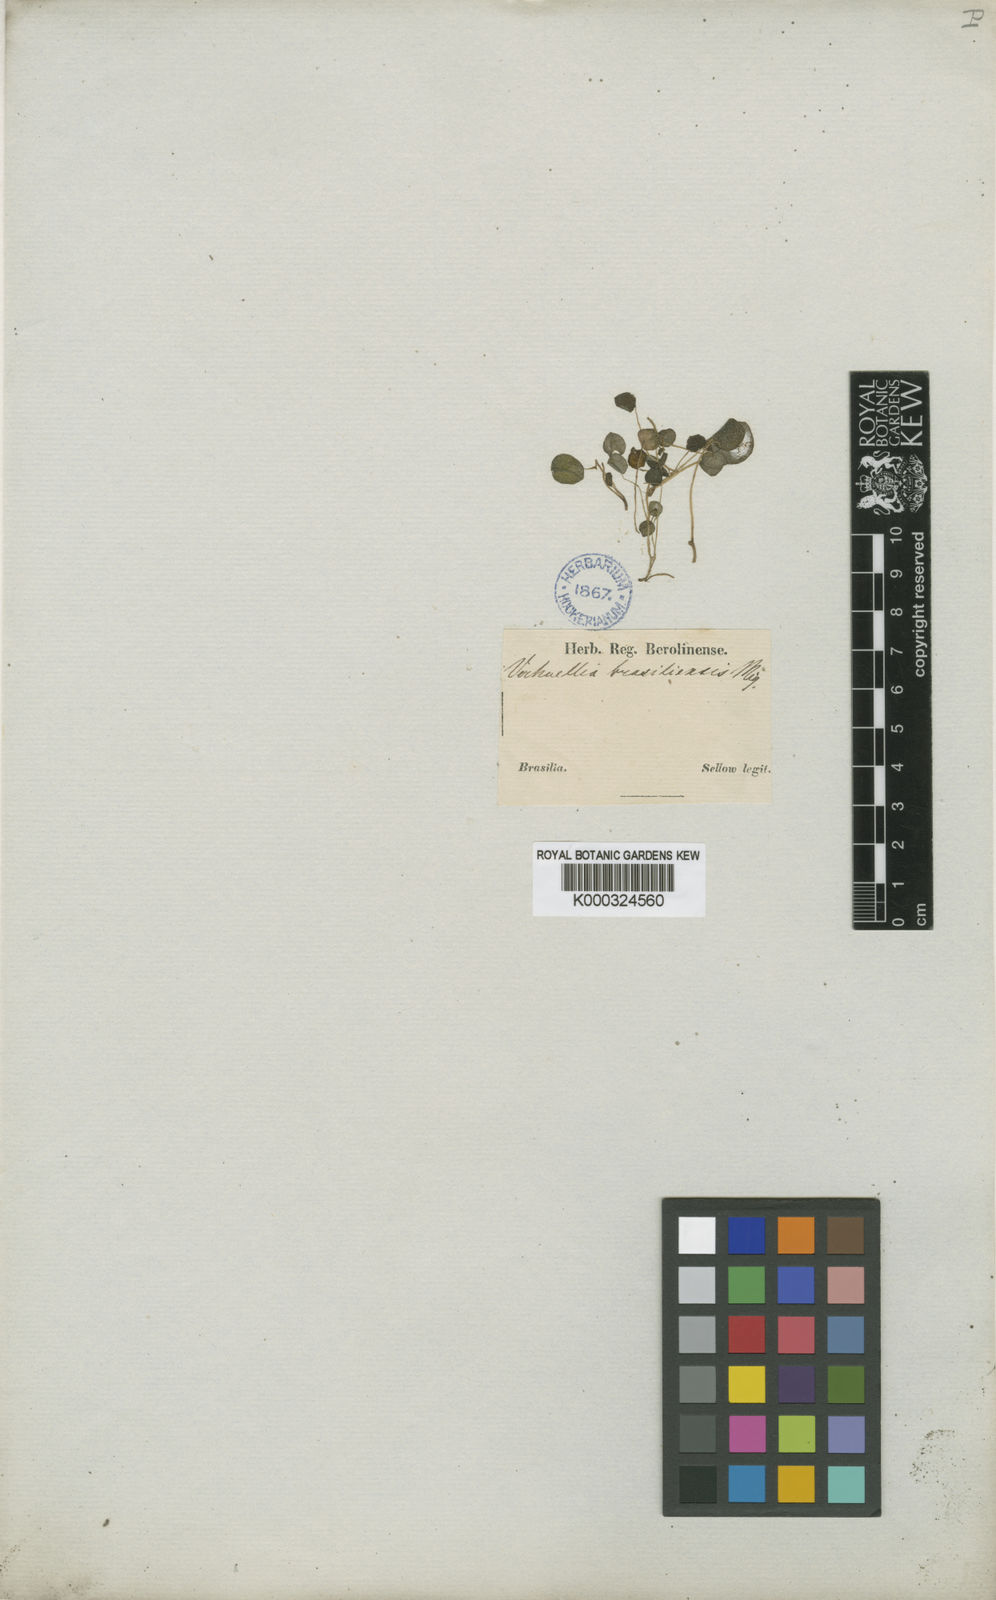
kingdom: Plantae
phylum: Tracheophyta
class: Magnoliopsida
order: Piperales
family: Piperaceae
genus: Peperomia
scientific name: Peperomia brasiliensis
